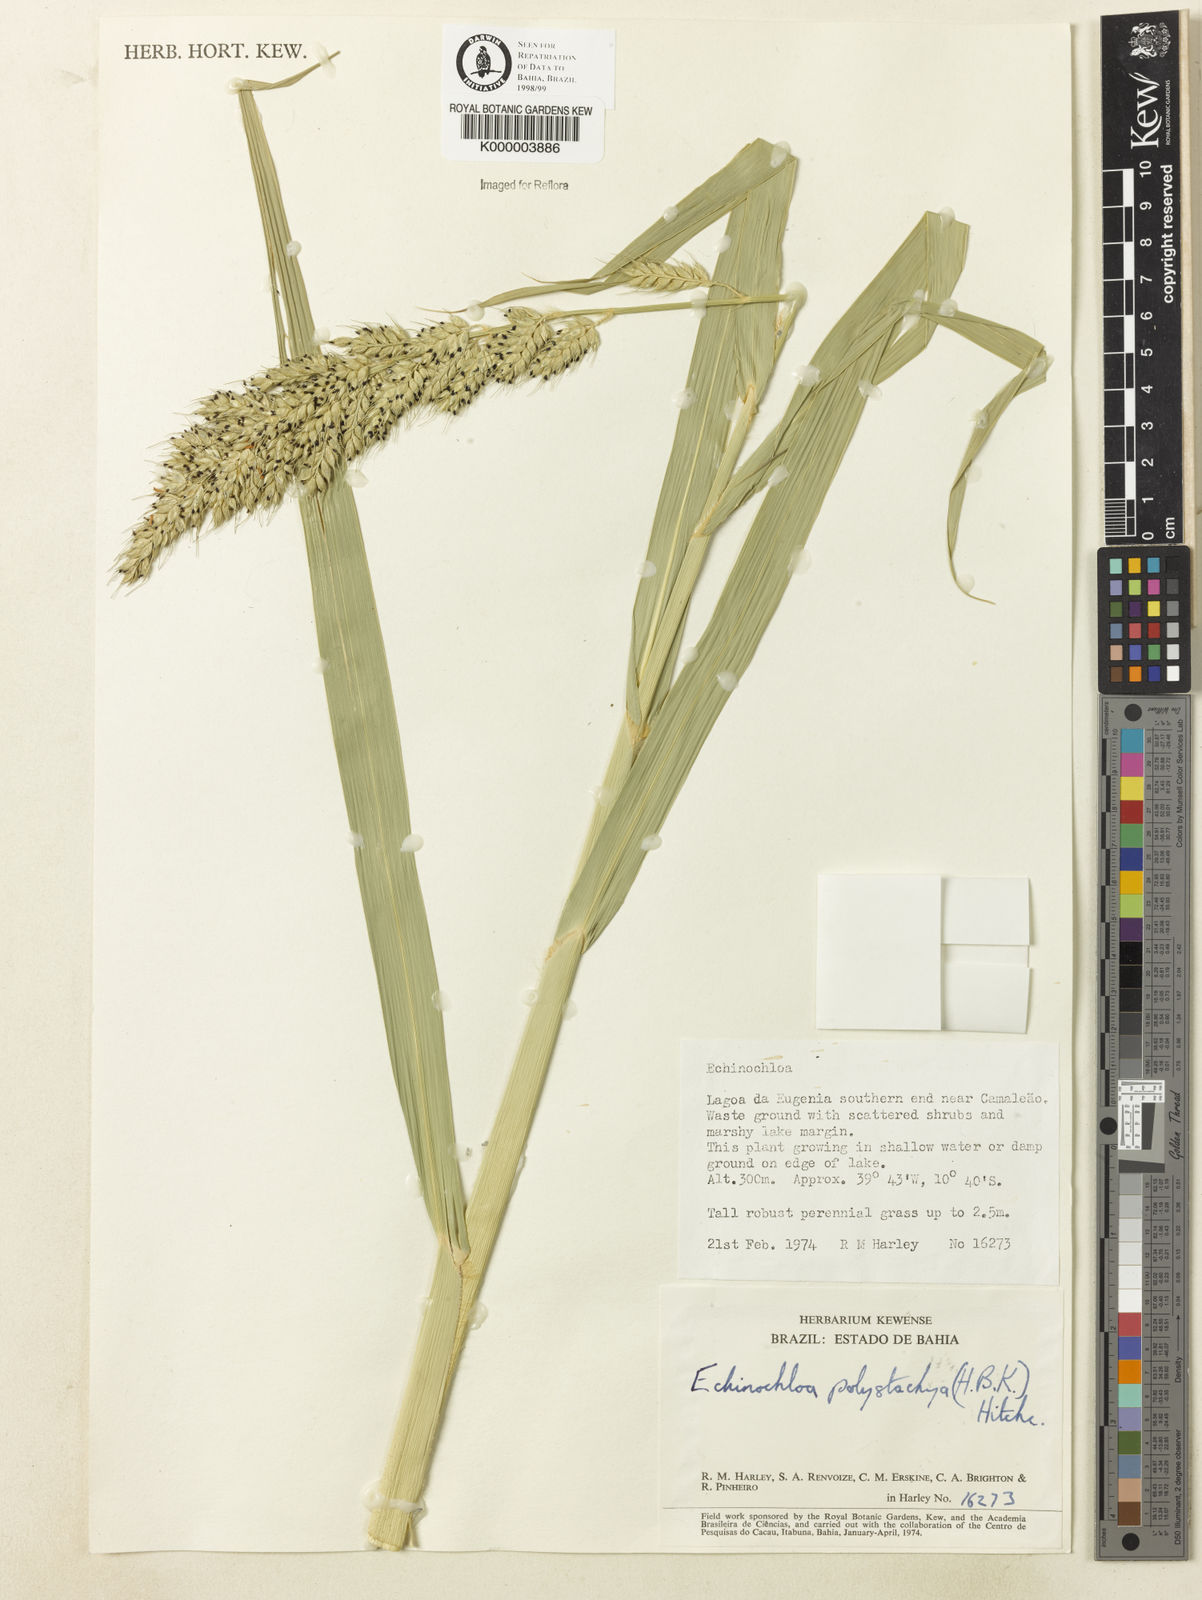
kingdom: Plantae
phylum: Tracheophyta
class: Liliopsida
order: Poales
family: Poaceae
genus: Echinochloa
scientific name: Echinochloa polystachya
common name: Creeping river grass
